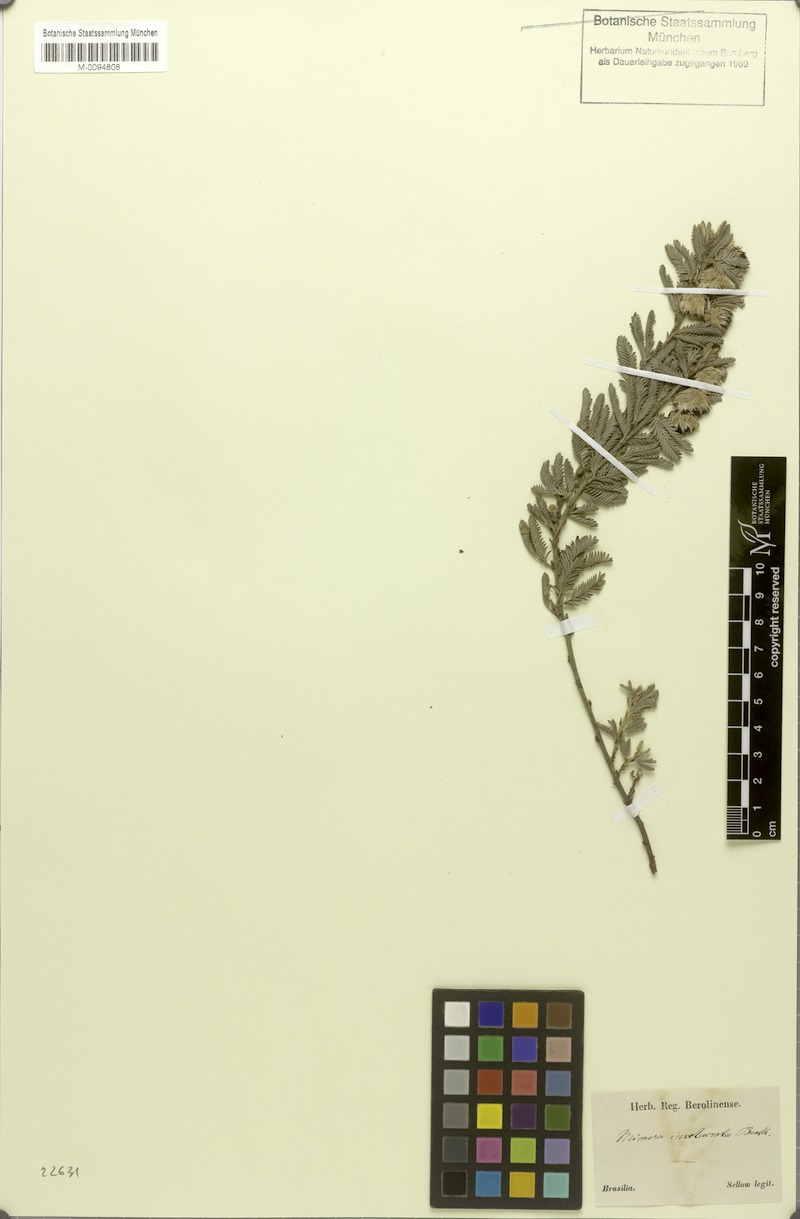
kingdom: Plantae
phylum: Tracheophyta
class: Magnoliopsida
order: Fabales
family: Fabaceae
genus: Mimosa
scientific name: Mimosa involucrata
